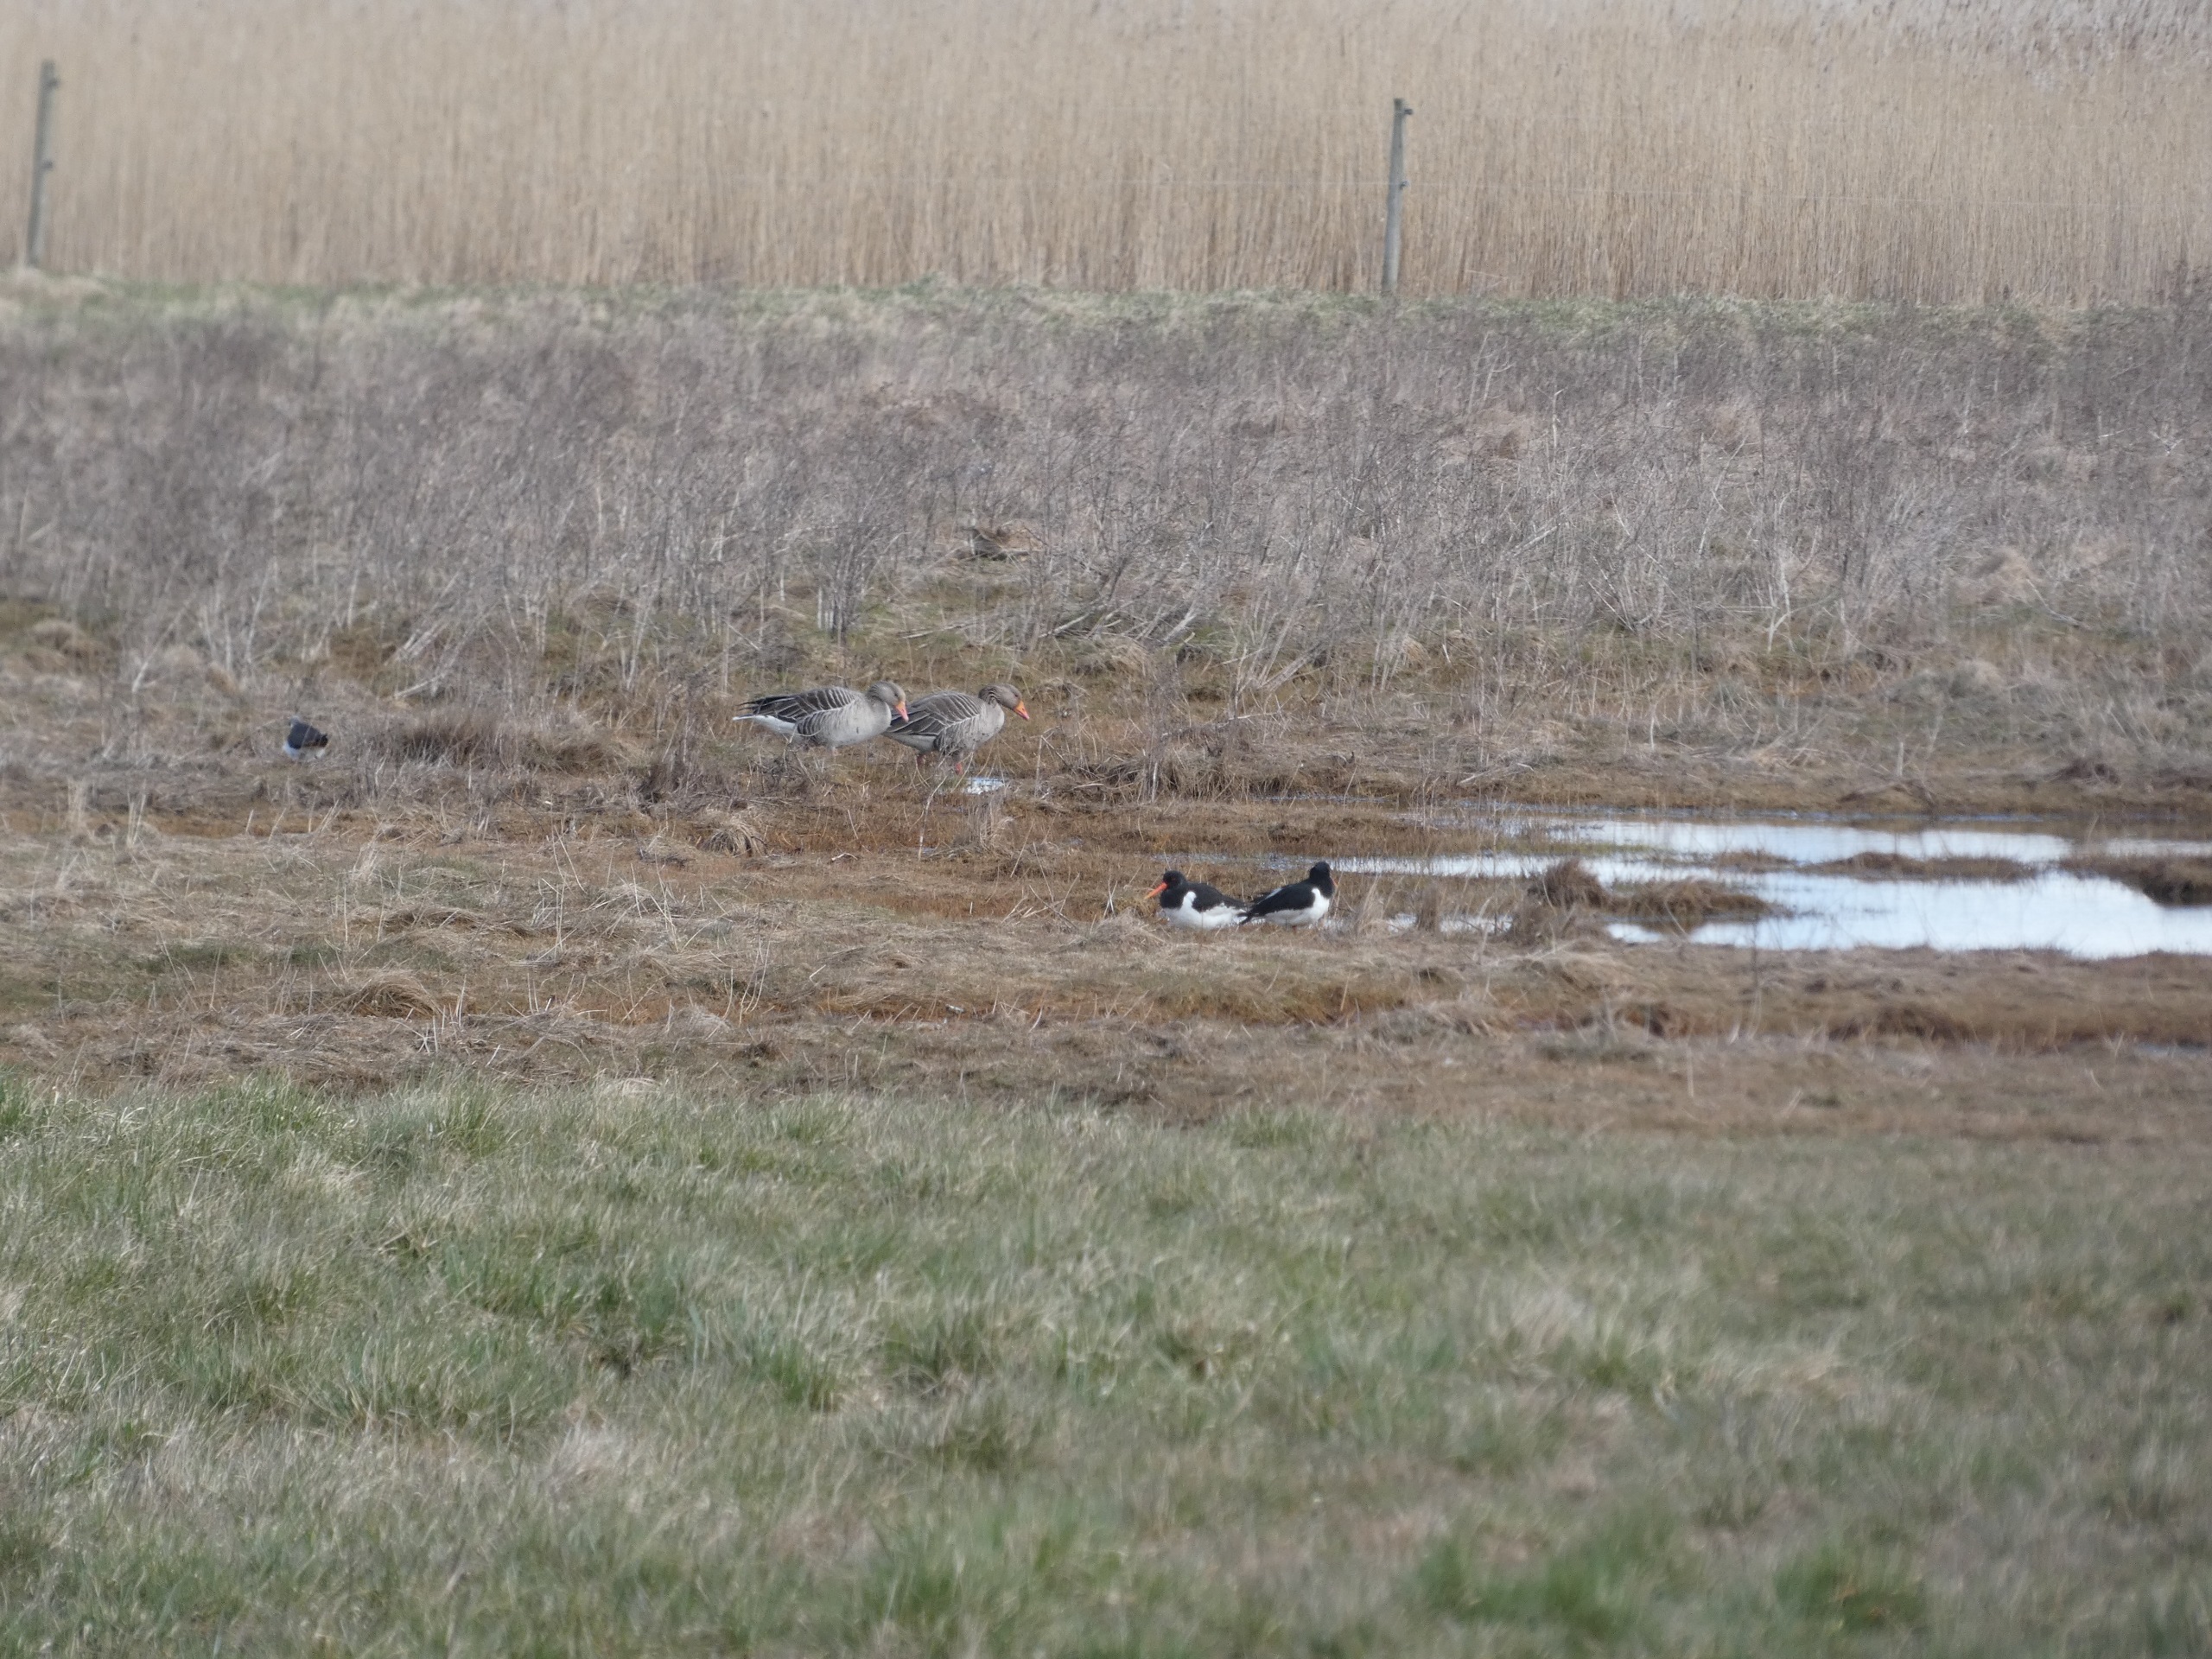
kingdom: Animalia
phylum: Chordata
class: Aves
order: Charadriiformes
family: Haematopodidae
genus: Haematopus
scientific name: Haematopus ostralegus
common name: Strandskade
